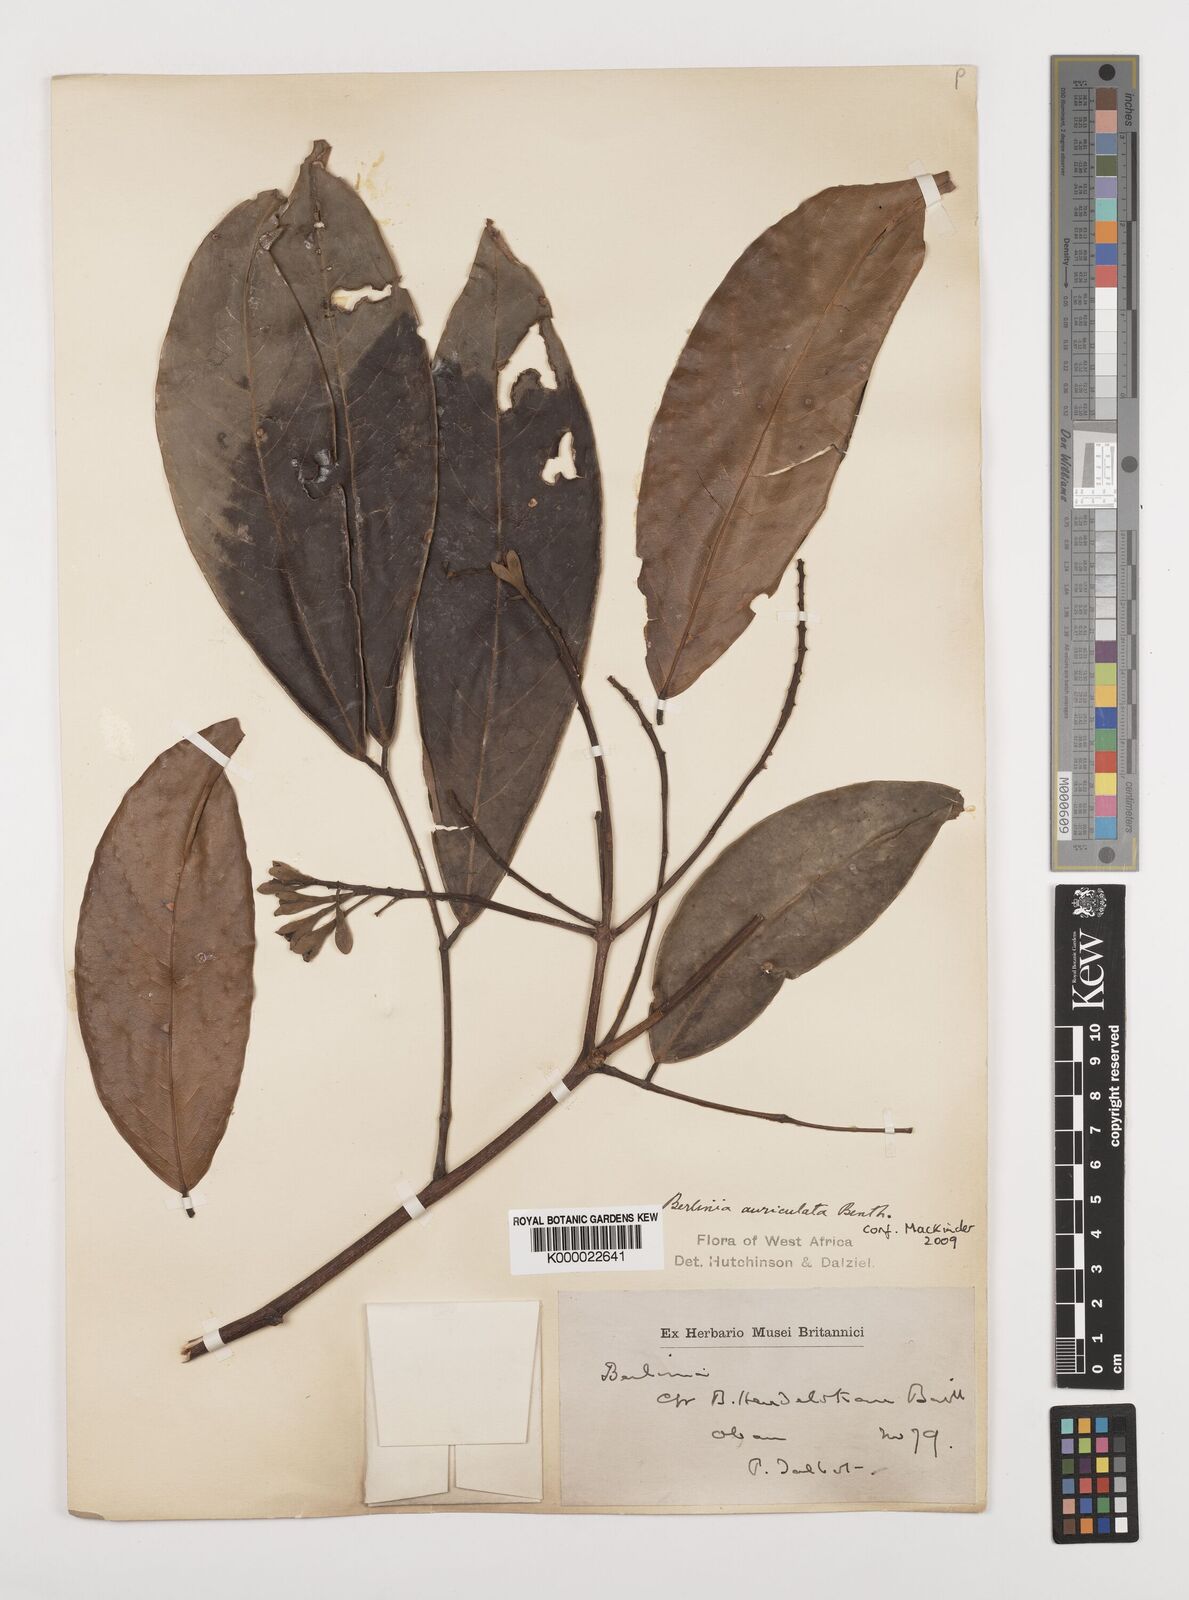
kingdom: Plantae
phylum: Tracheophyta
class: Magnoliopsida
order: Fabales
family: Fabaceae
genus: Berlinia
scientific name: Berlinia auriculata
